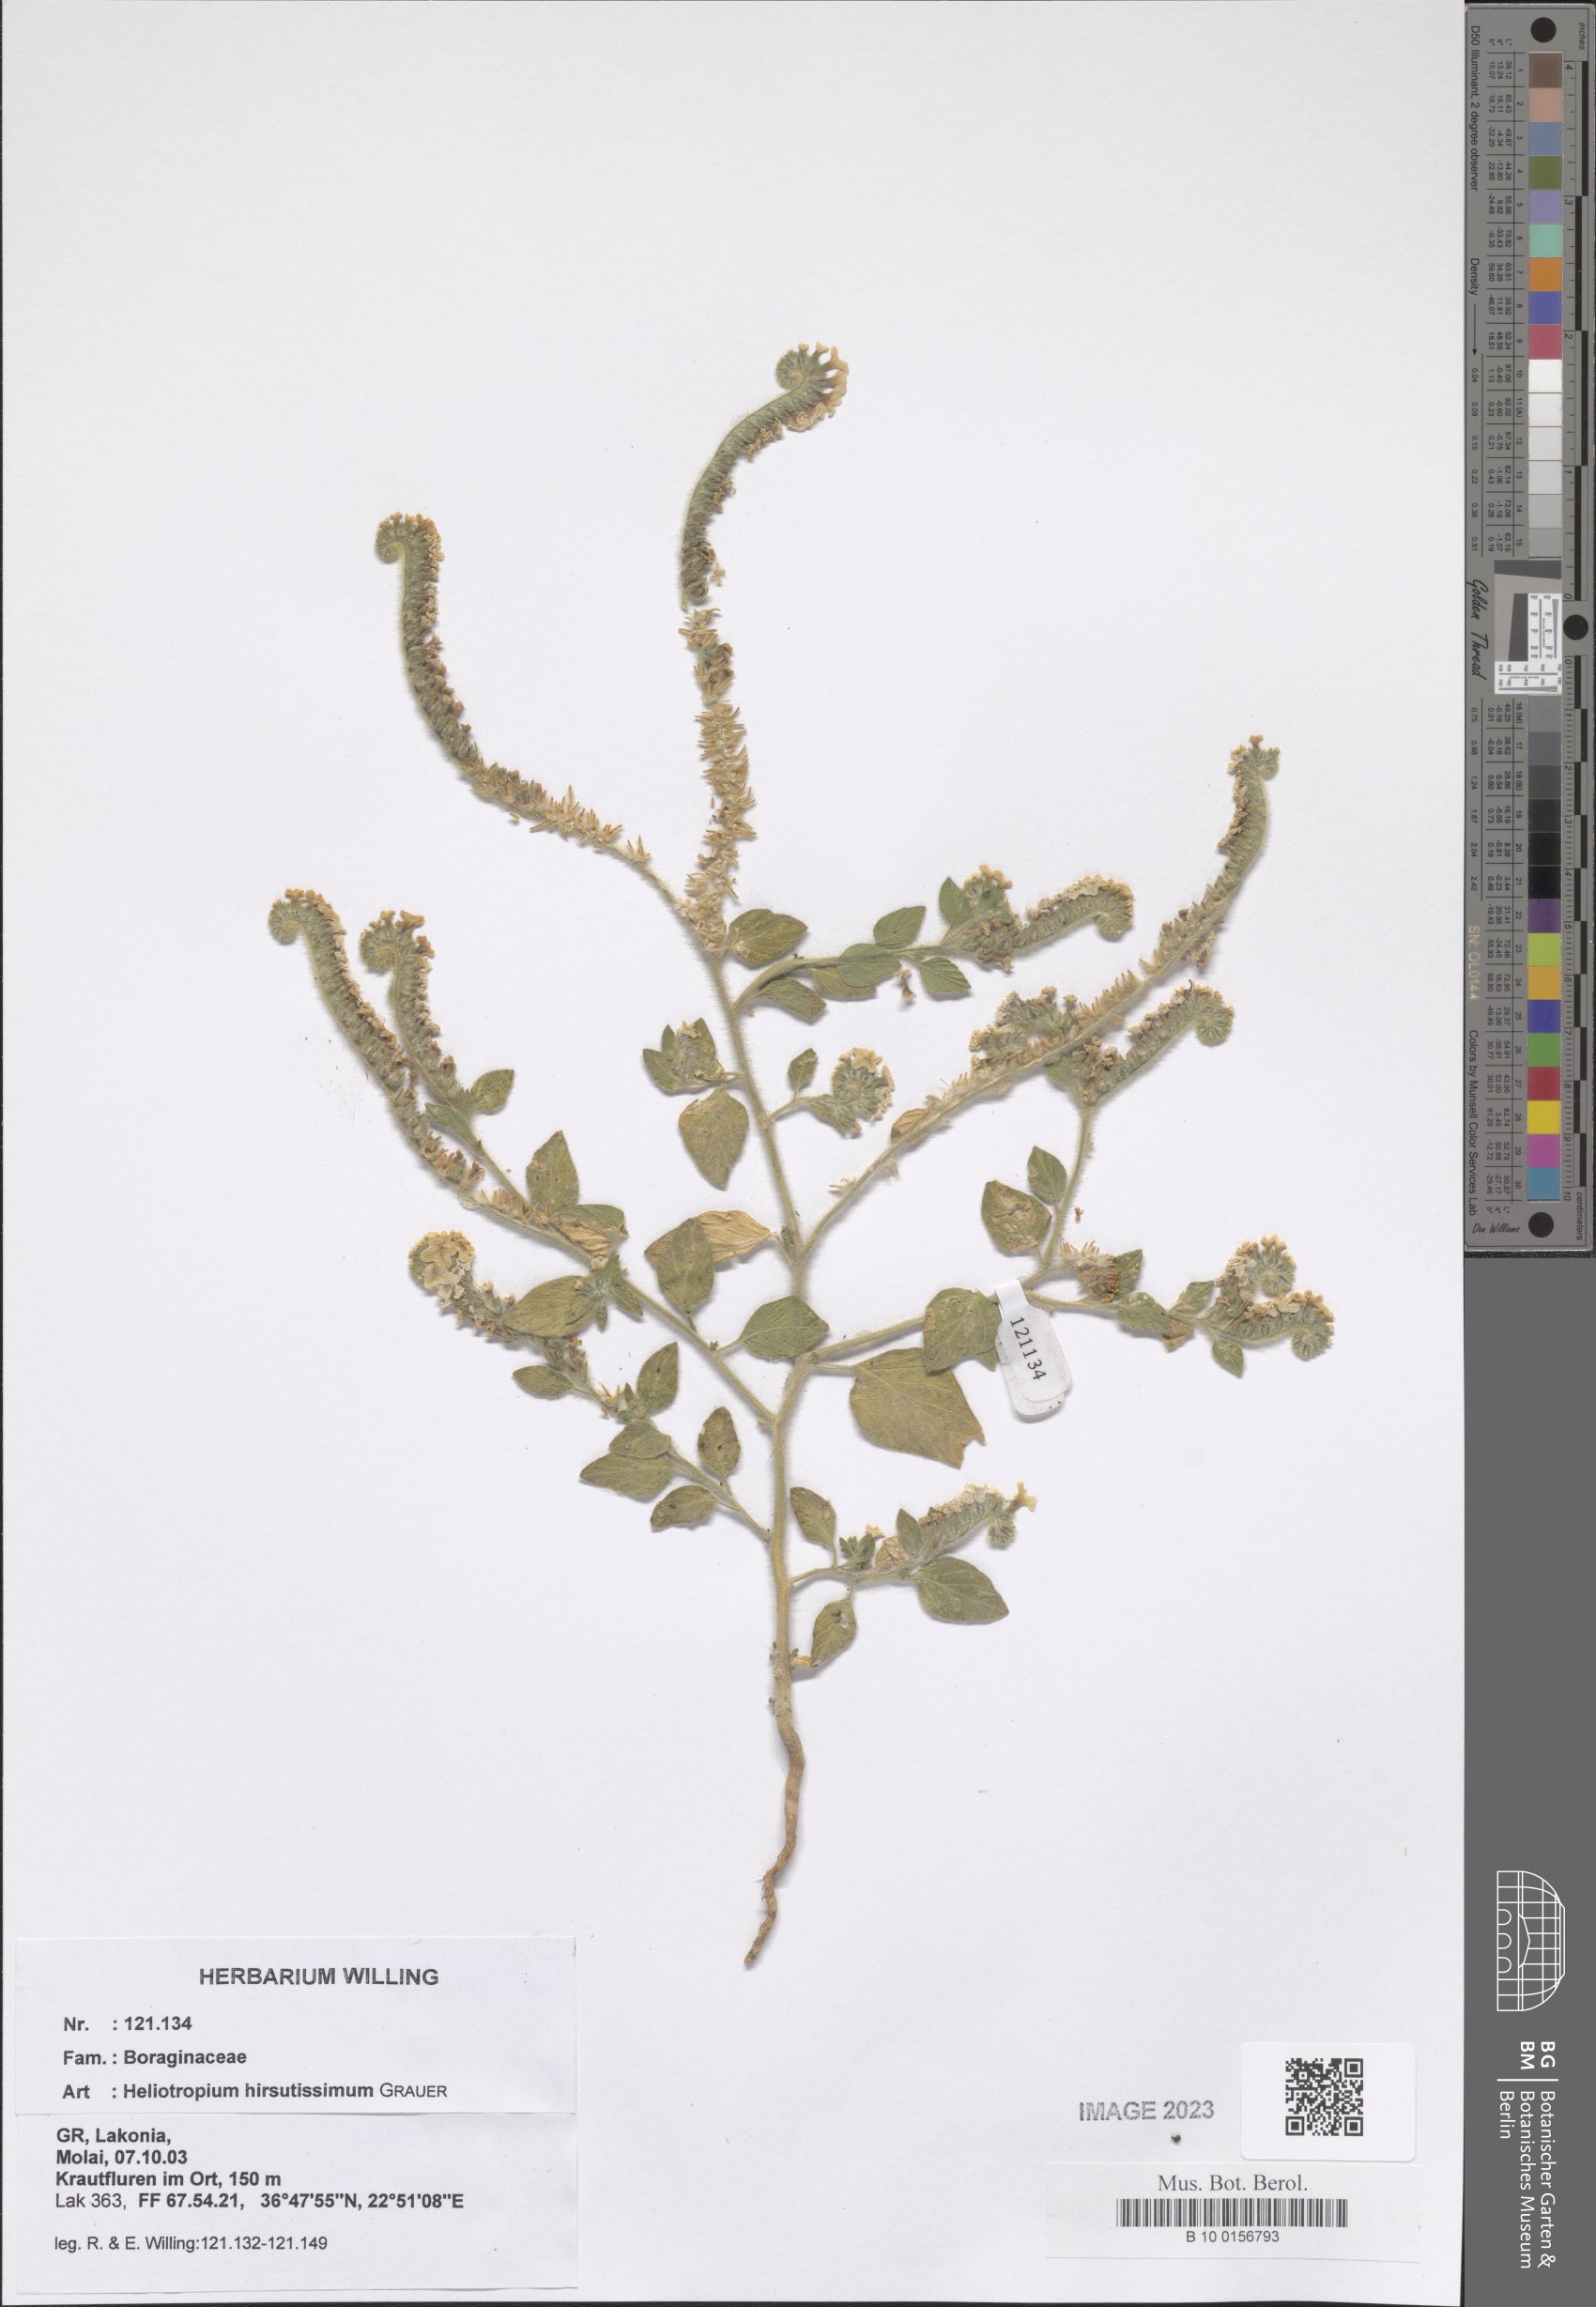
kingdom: Plantae
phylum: Tracheophyta
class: Magnoliopsida
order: Boraginales
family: Heliotropiaceae
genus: Heliotropium
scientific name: Heliotropium hirsutissimum
